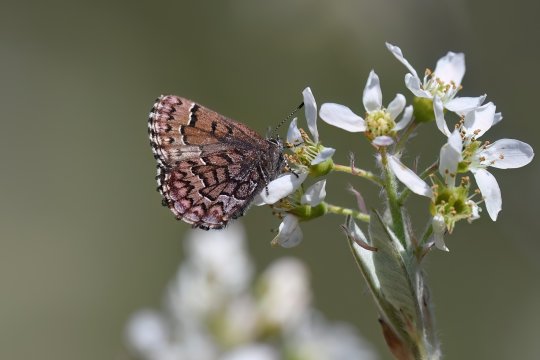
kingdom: Animalia
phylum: Arthropoda
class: Insecta
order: Lepidoptera
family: Lycaenidae
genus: Incisalia
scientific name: Incisalia niphon
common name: Eastern Pine Elfin
